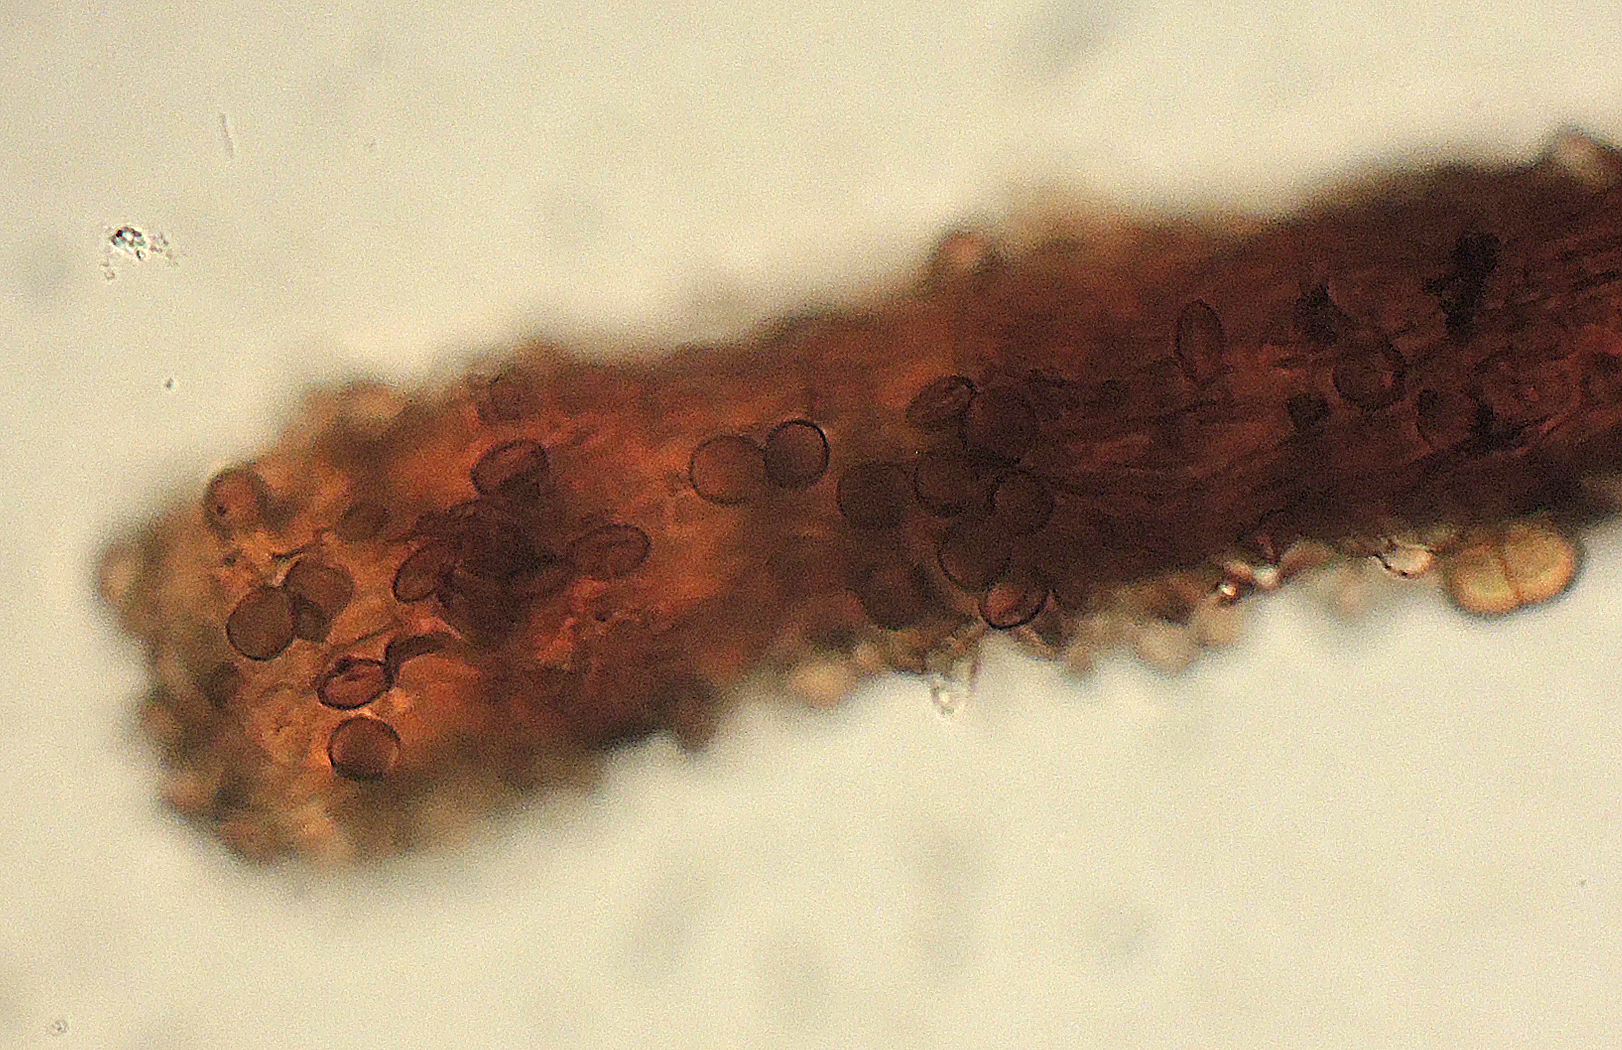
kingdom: Fungi
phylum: Ascomycota
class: Sordariomycetes
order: Melanosporales
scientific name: Melanosporales
